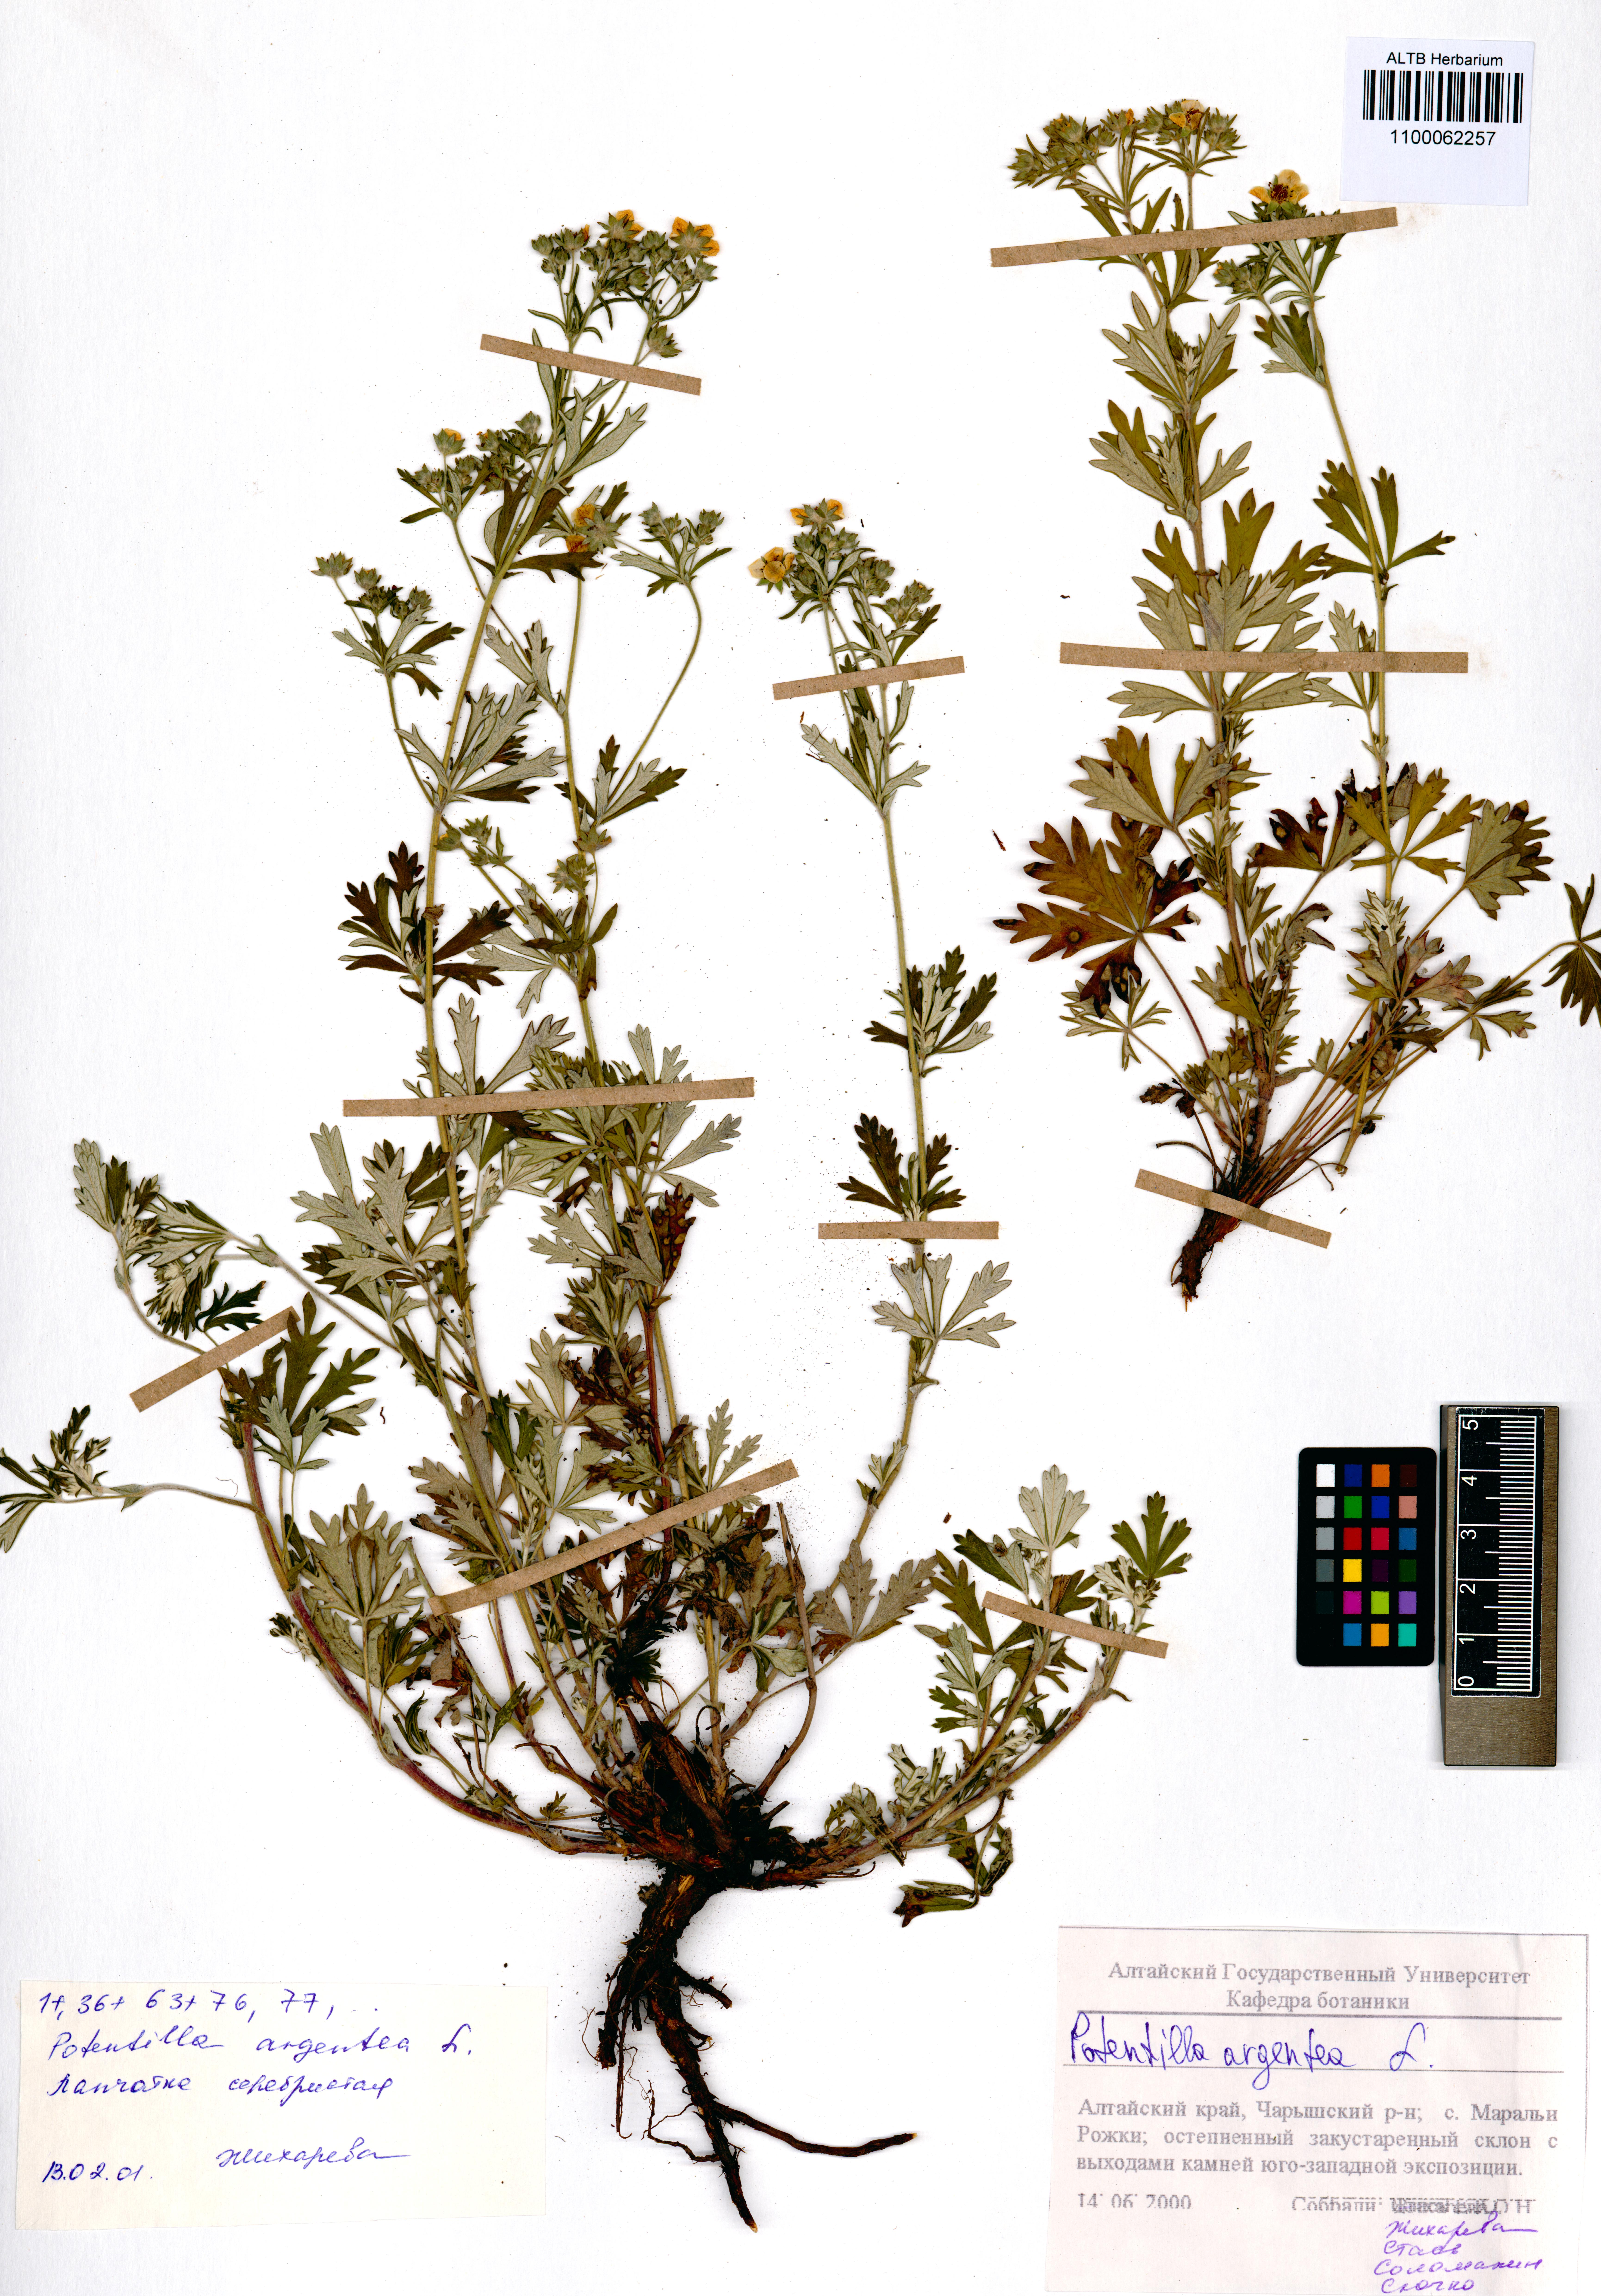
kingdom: Plantae
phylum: Tracheophyta
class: Magnoliopsida
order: Rosales
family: Rosaceae
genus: Potentilla
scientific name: Potentilla argentea
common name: Hoary cinquefoil
